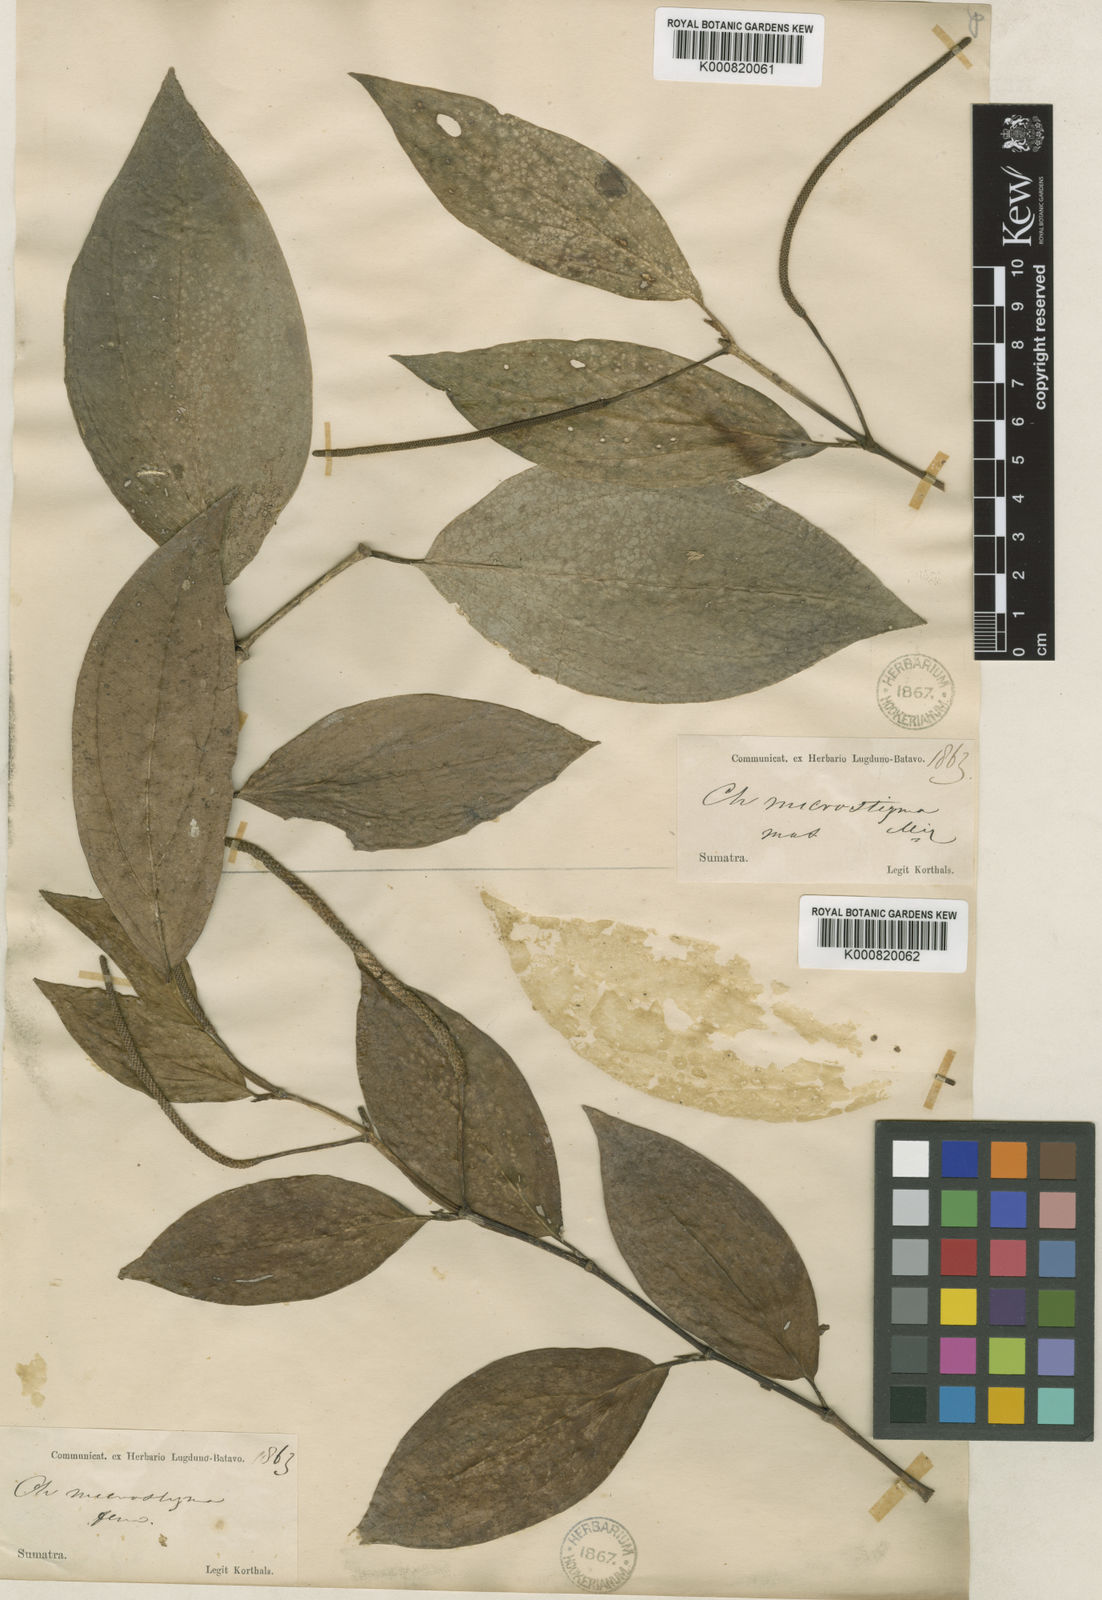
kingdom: Plantae
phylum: Tracheophyta
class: Magnoliopsida
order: Piperales
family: Piperaceae
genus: Piper
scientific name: Piper microstachyon
